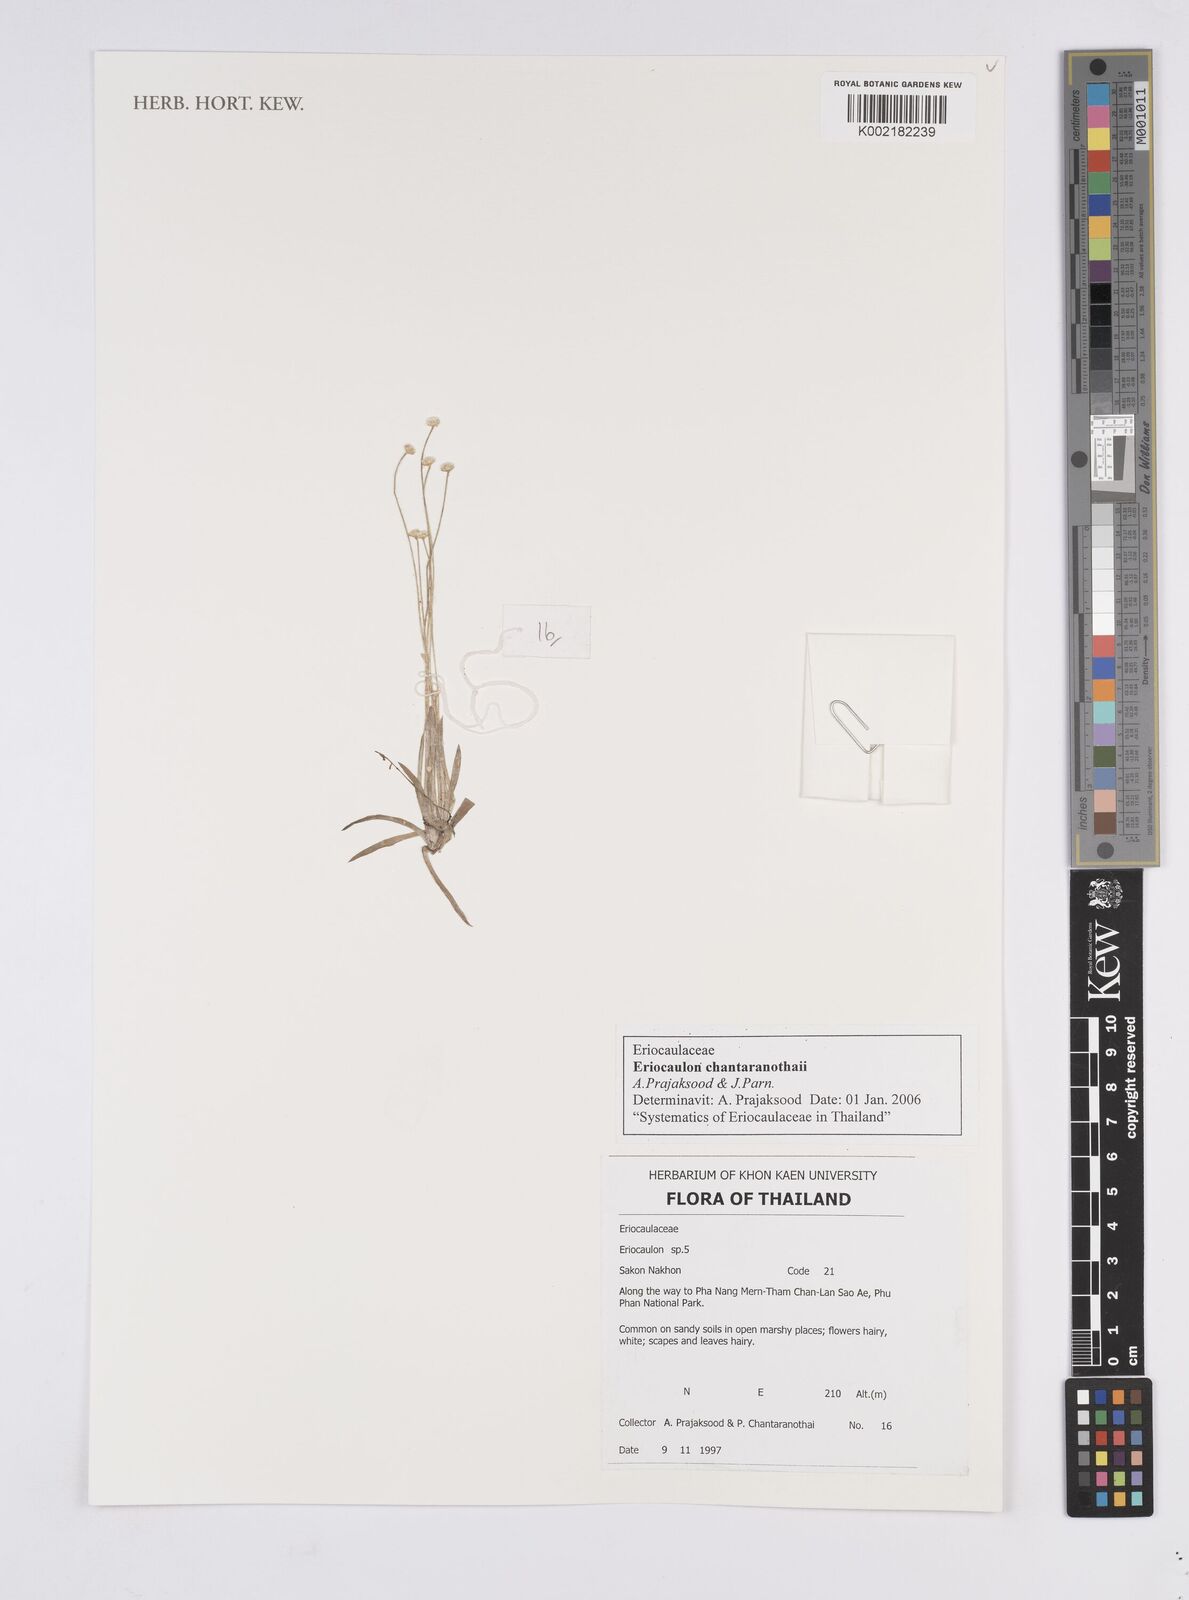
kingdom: Plantae
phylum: Tracheophyta
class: Liliopsida
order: Poales
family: Eriocaulaceae
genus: Eriocaulon
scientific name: Eriocaulon chantaranothaii
